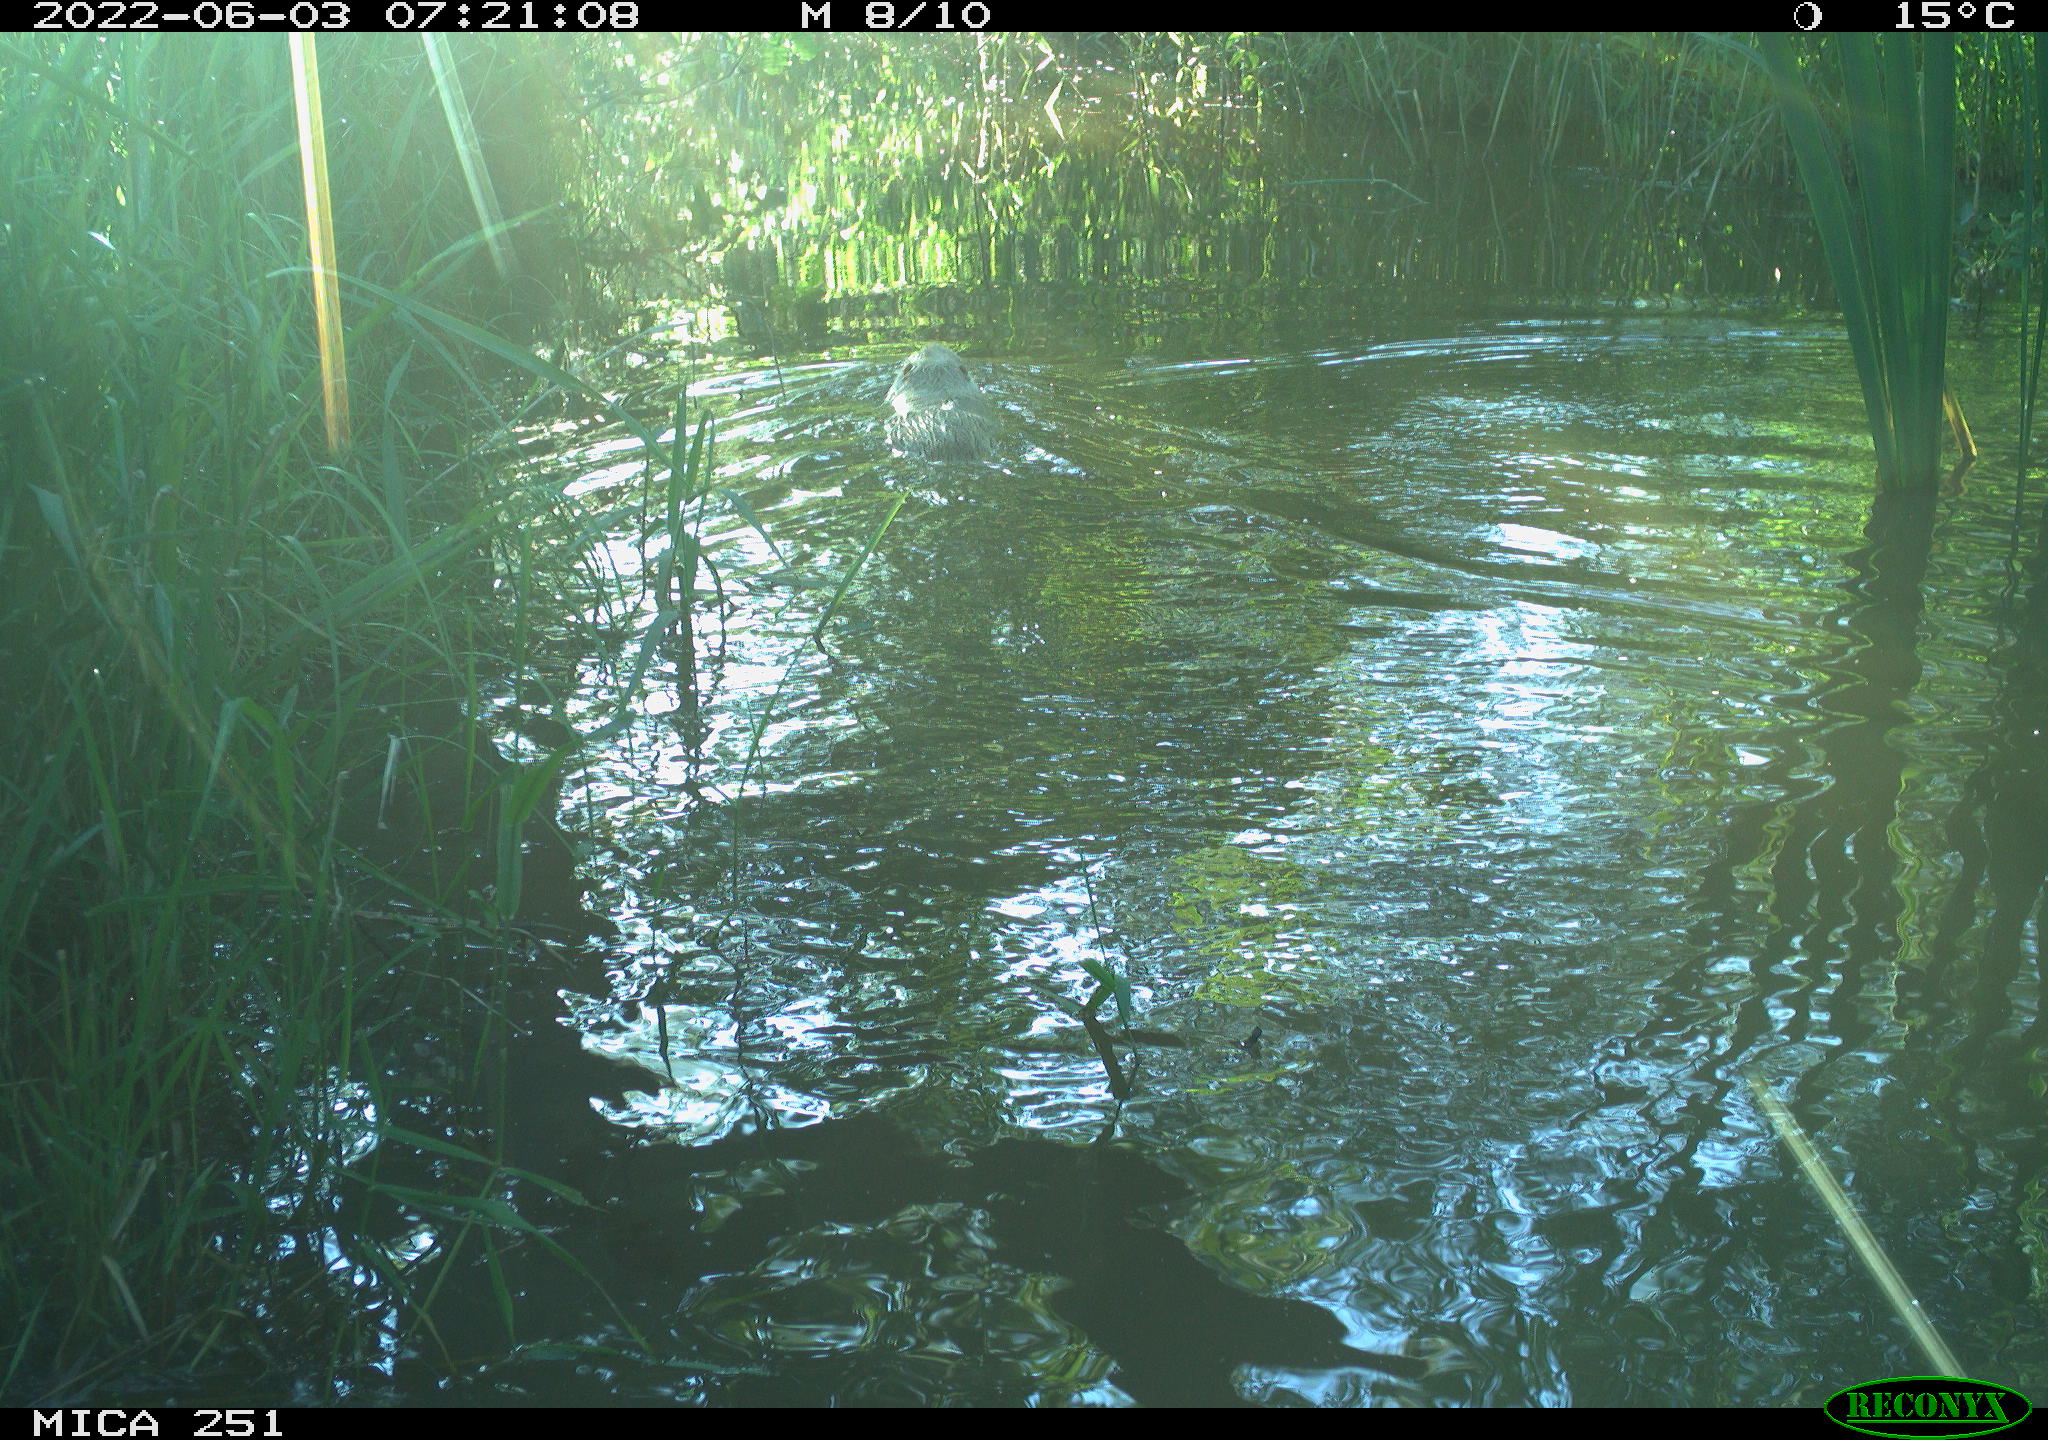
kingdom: Animalia
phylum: Chordata
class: Mammalia
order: Rodentia
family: Castoridae
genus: Castor
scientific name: Castor fiber
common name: Eurasian beaver
